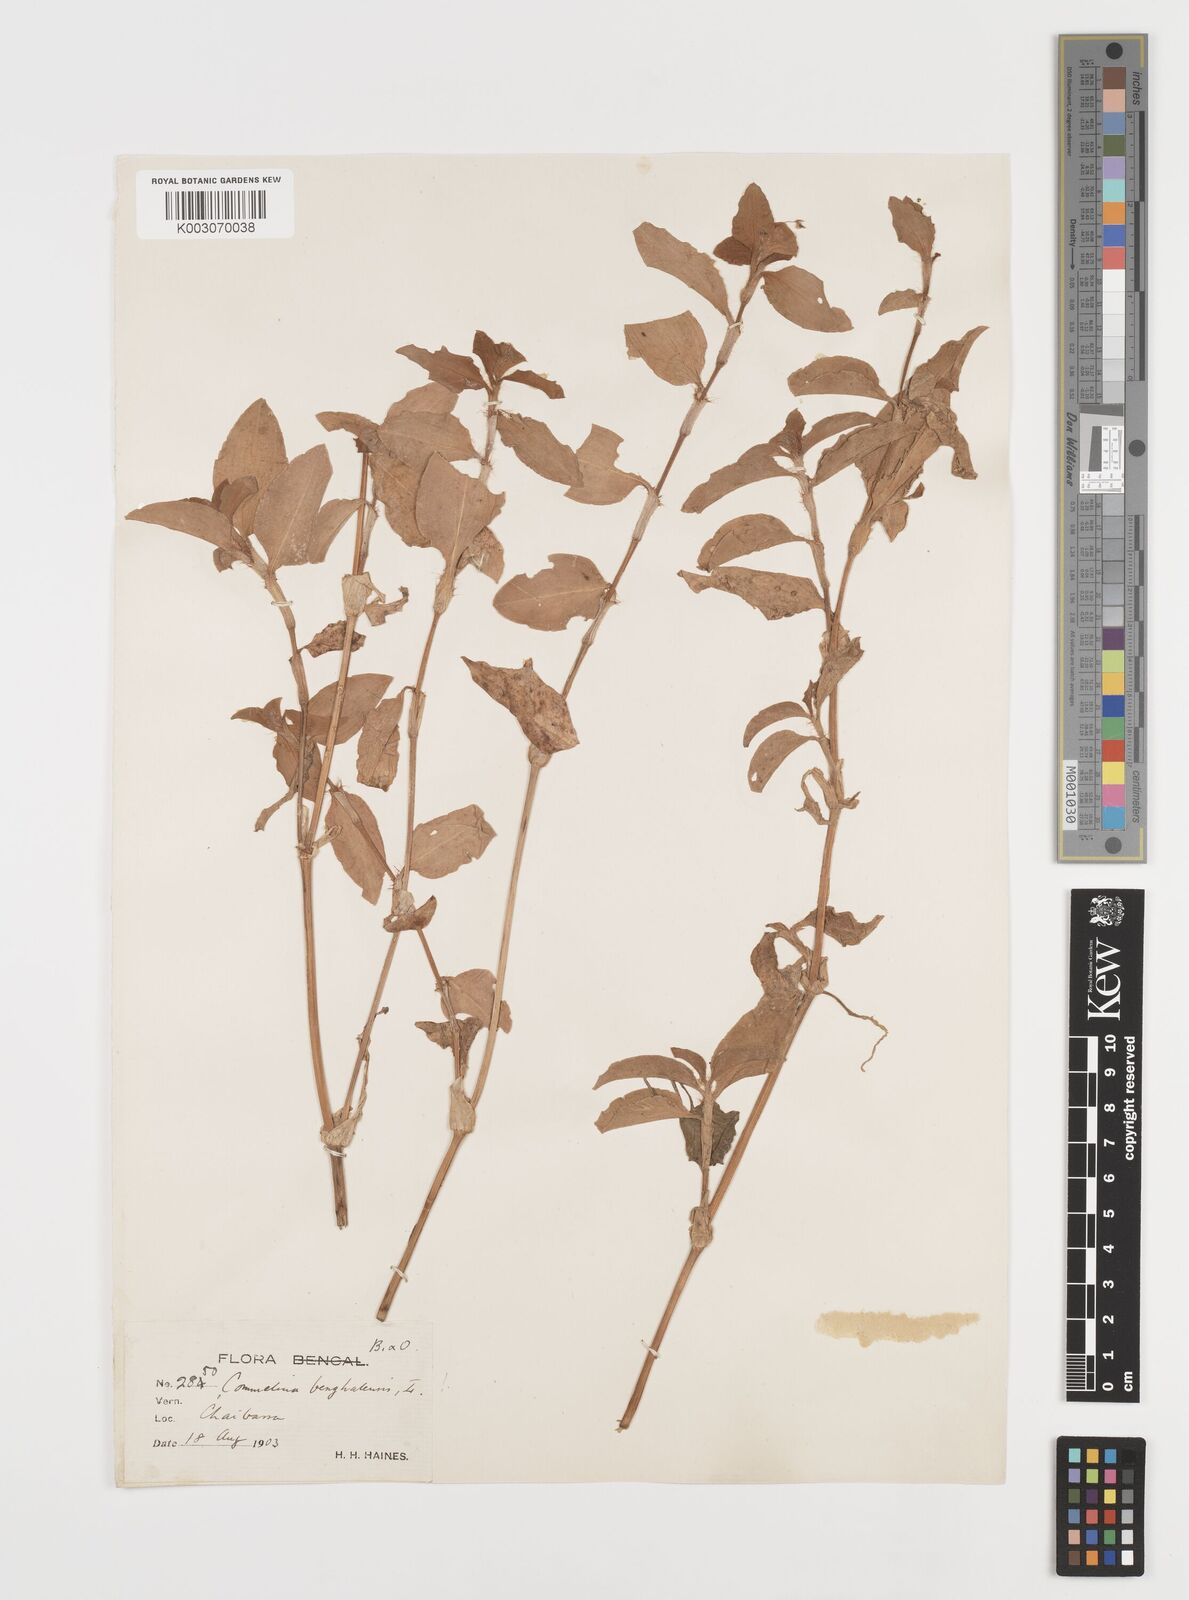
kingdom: Plantae
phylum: Tracheophyta
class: Liliopsida
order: Commelinales
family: Commelinaceae
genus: Commelina
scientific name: Commelina benghalensis
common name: Jio
